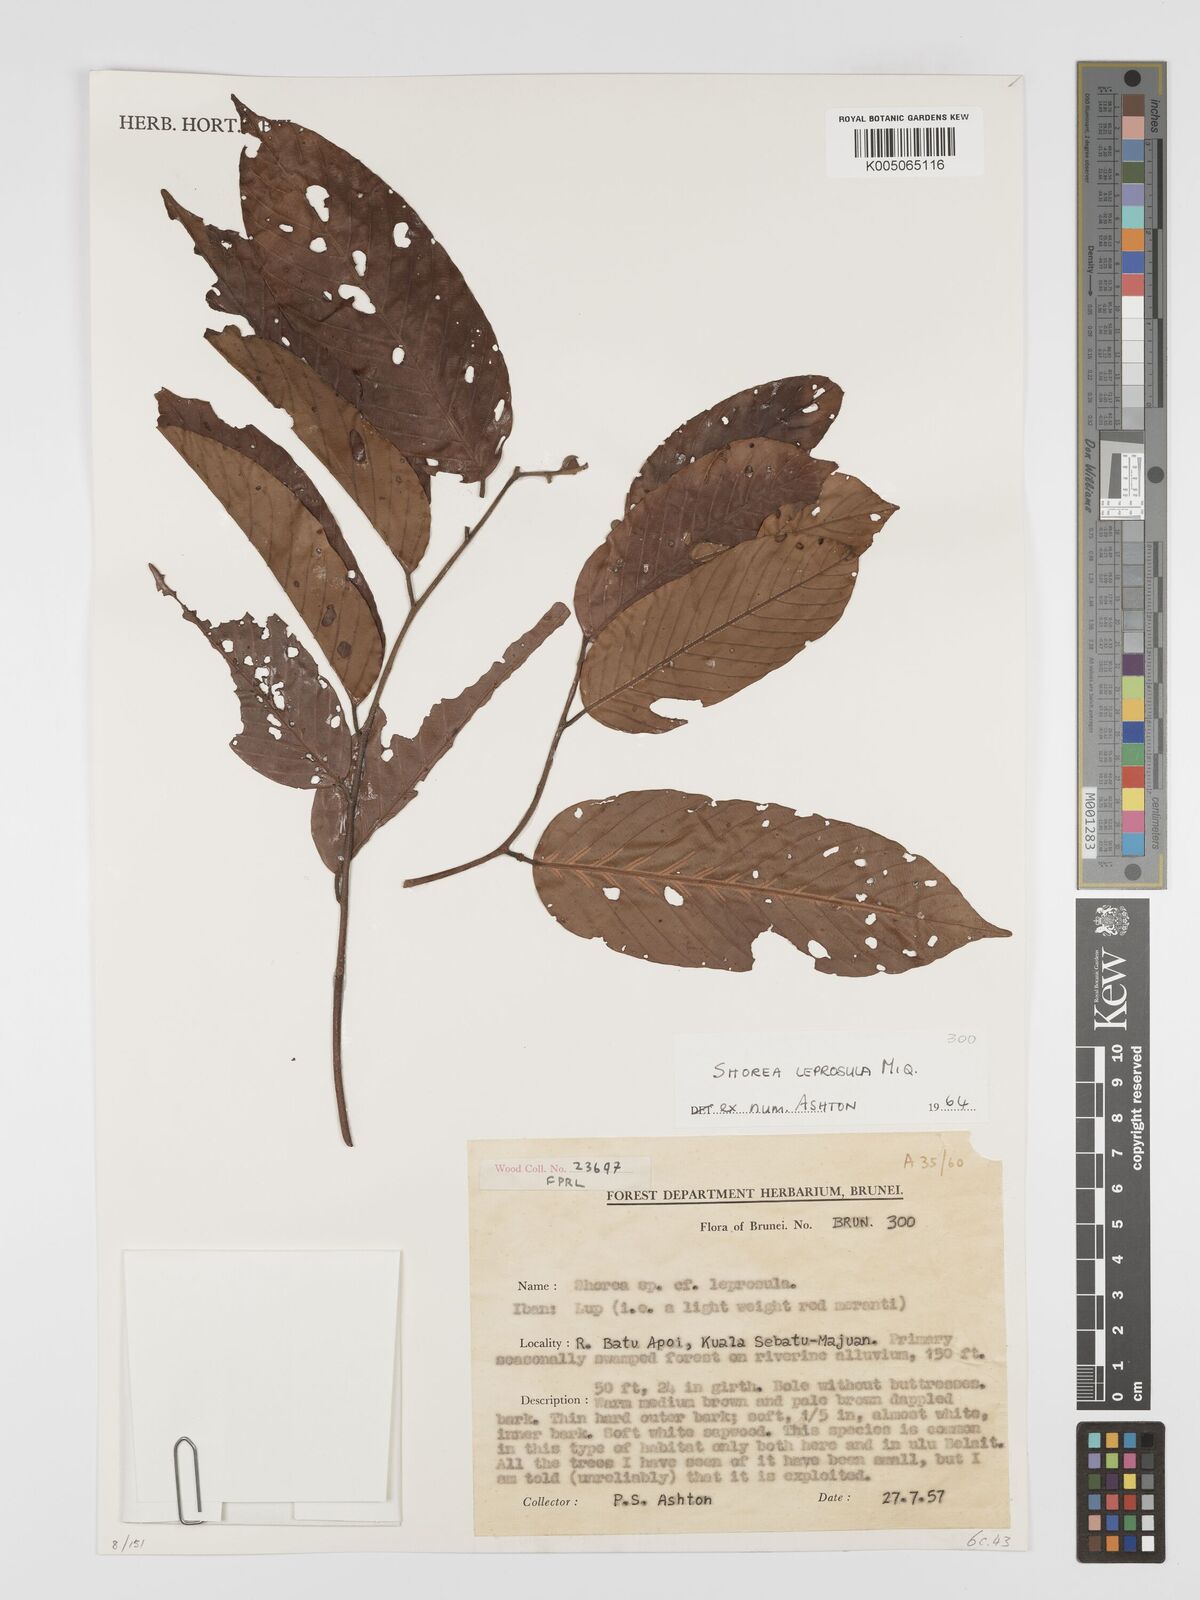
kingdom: Plantae
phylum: Tracheophyta
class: Magnoliopsida
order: Malvales
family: Dipterocarpaceae
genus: Shorea
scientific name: Shorea leprosula
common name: Light red meranti
